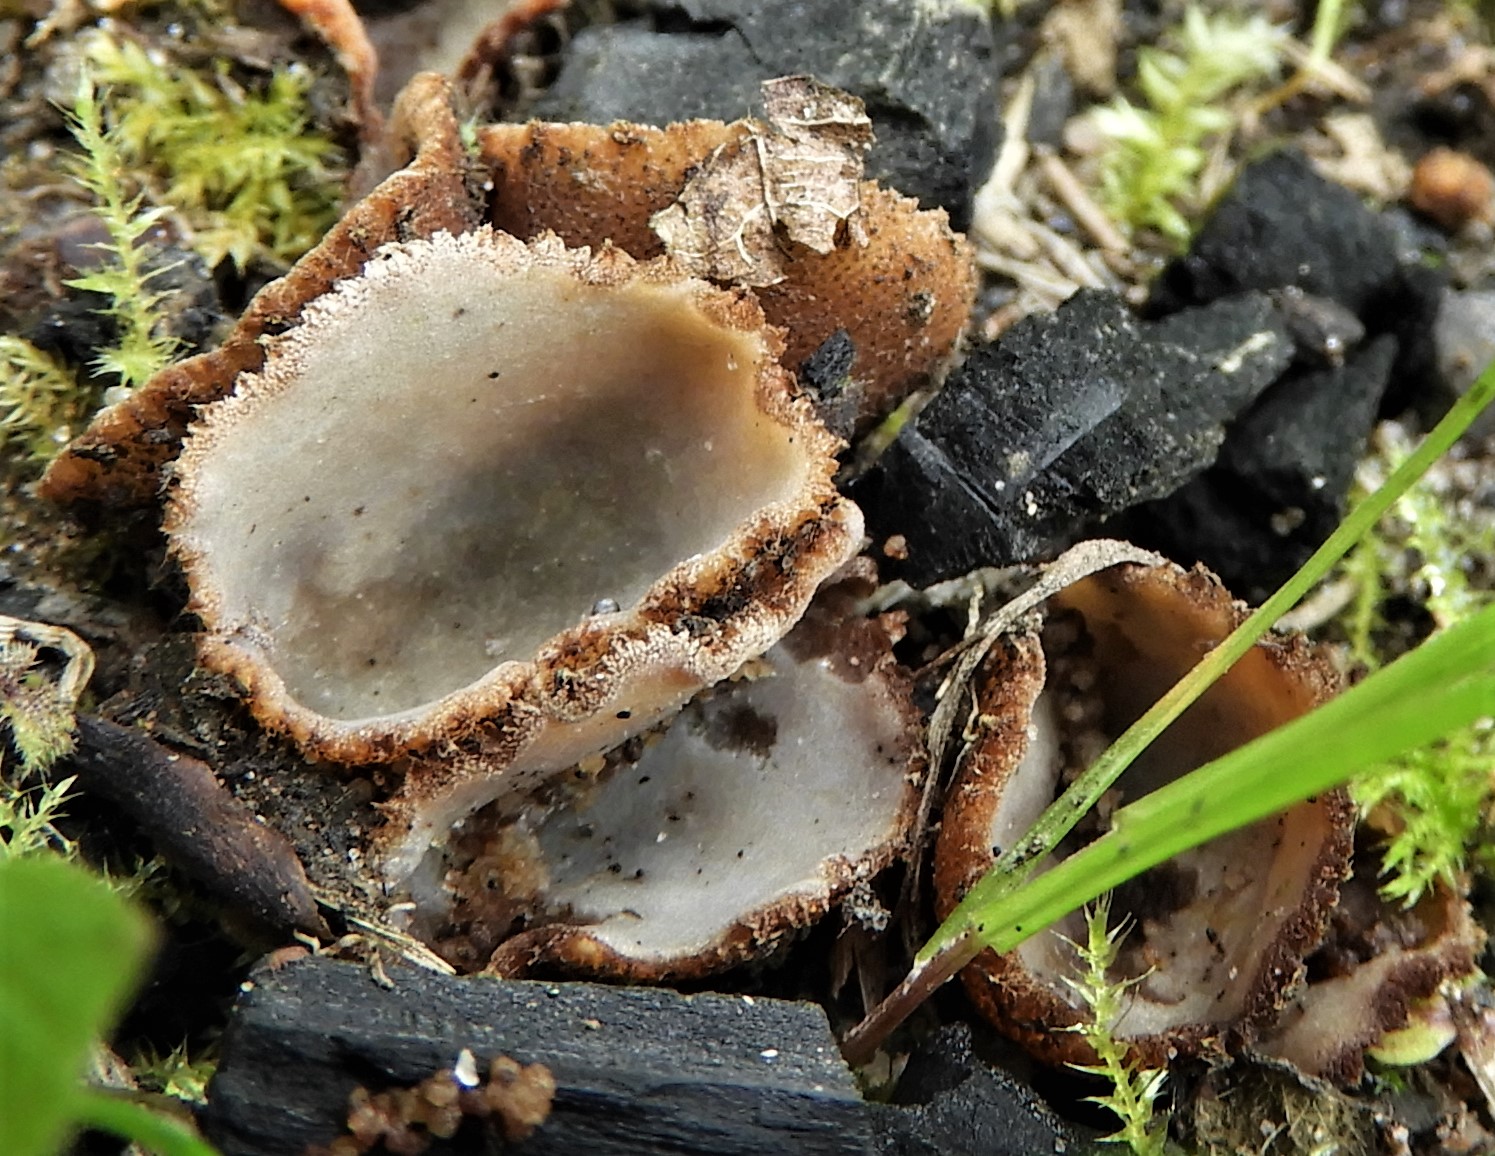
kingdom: Fungi
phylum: Ascomycota
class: Pezizomycetes
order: Pezizales
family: Pyronemataceae
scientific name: Pyronemataceae
